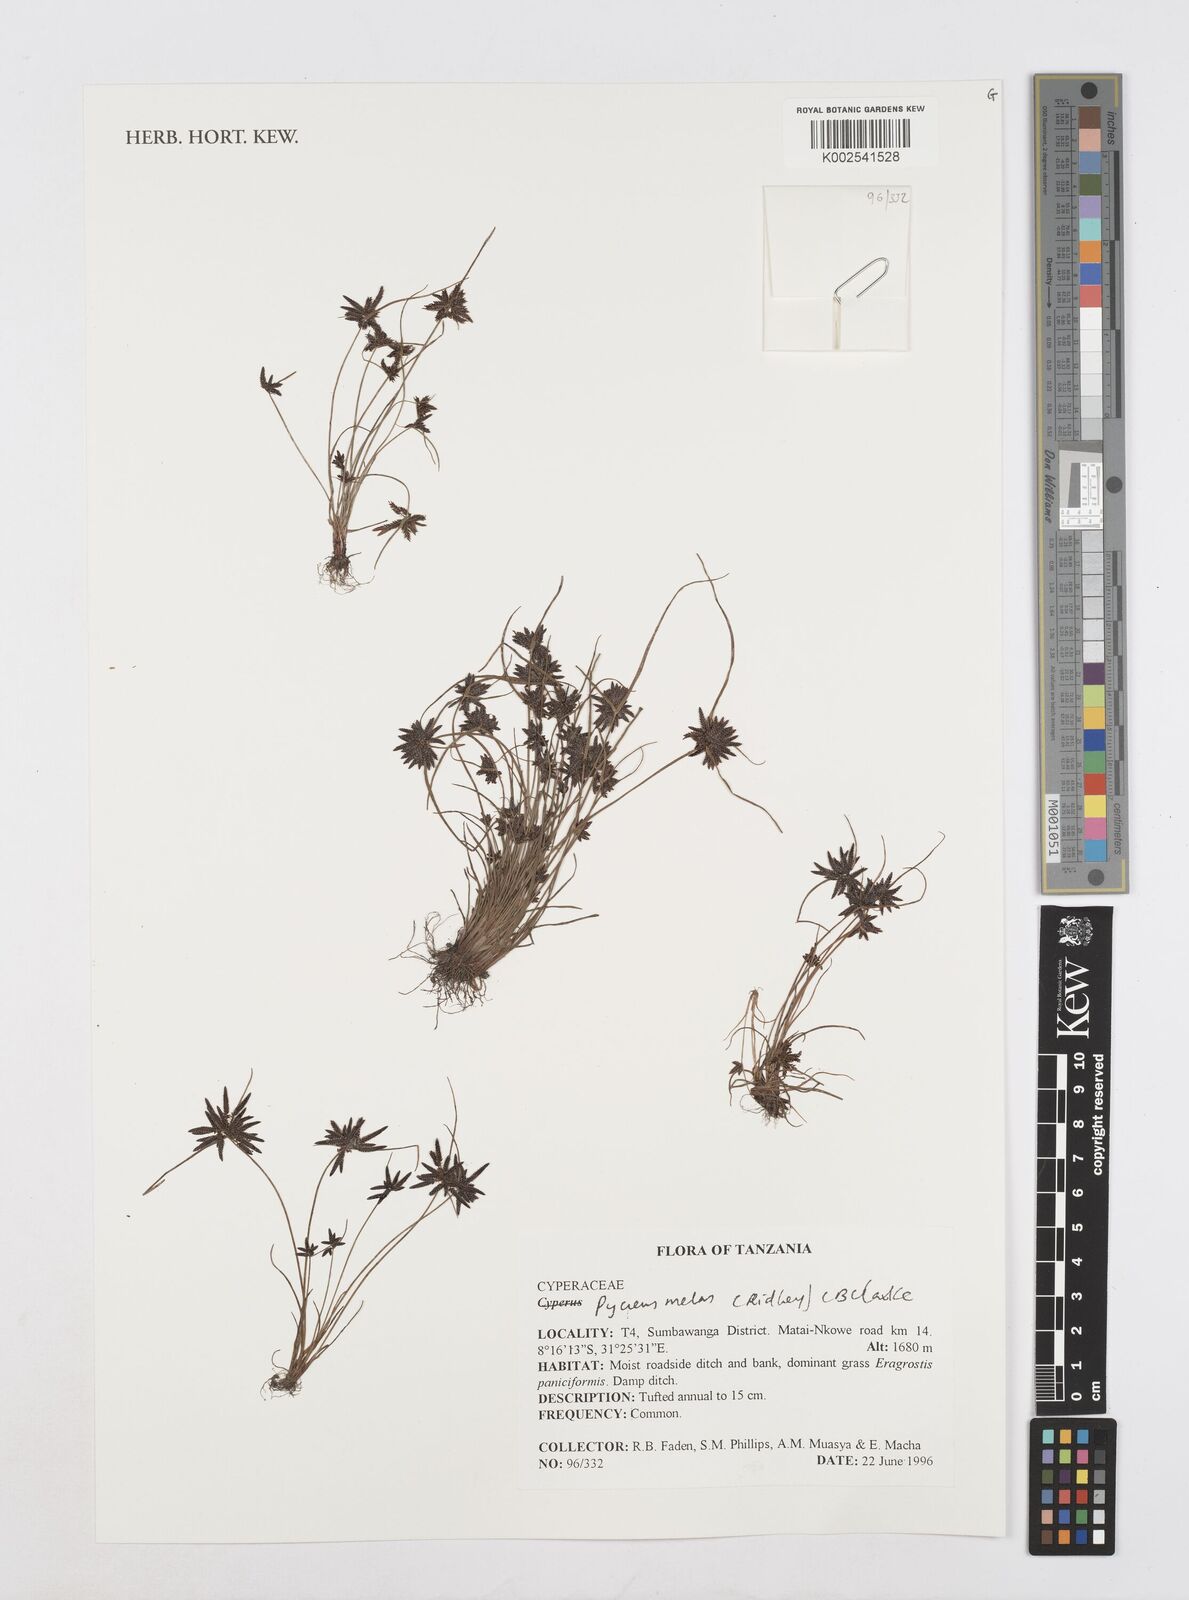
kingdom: Plantae
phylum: Tracheophyta
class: Liliopsida
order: Poales
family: Cyperaceae
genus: Cyperus
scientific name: Cyperus melas
